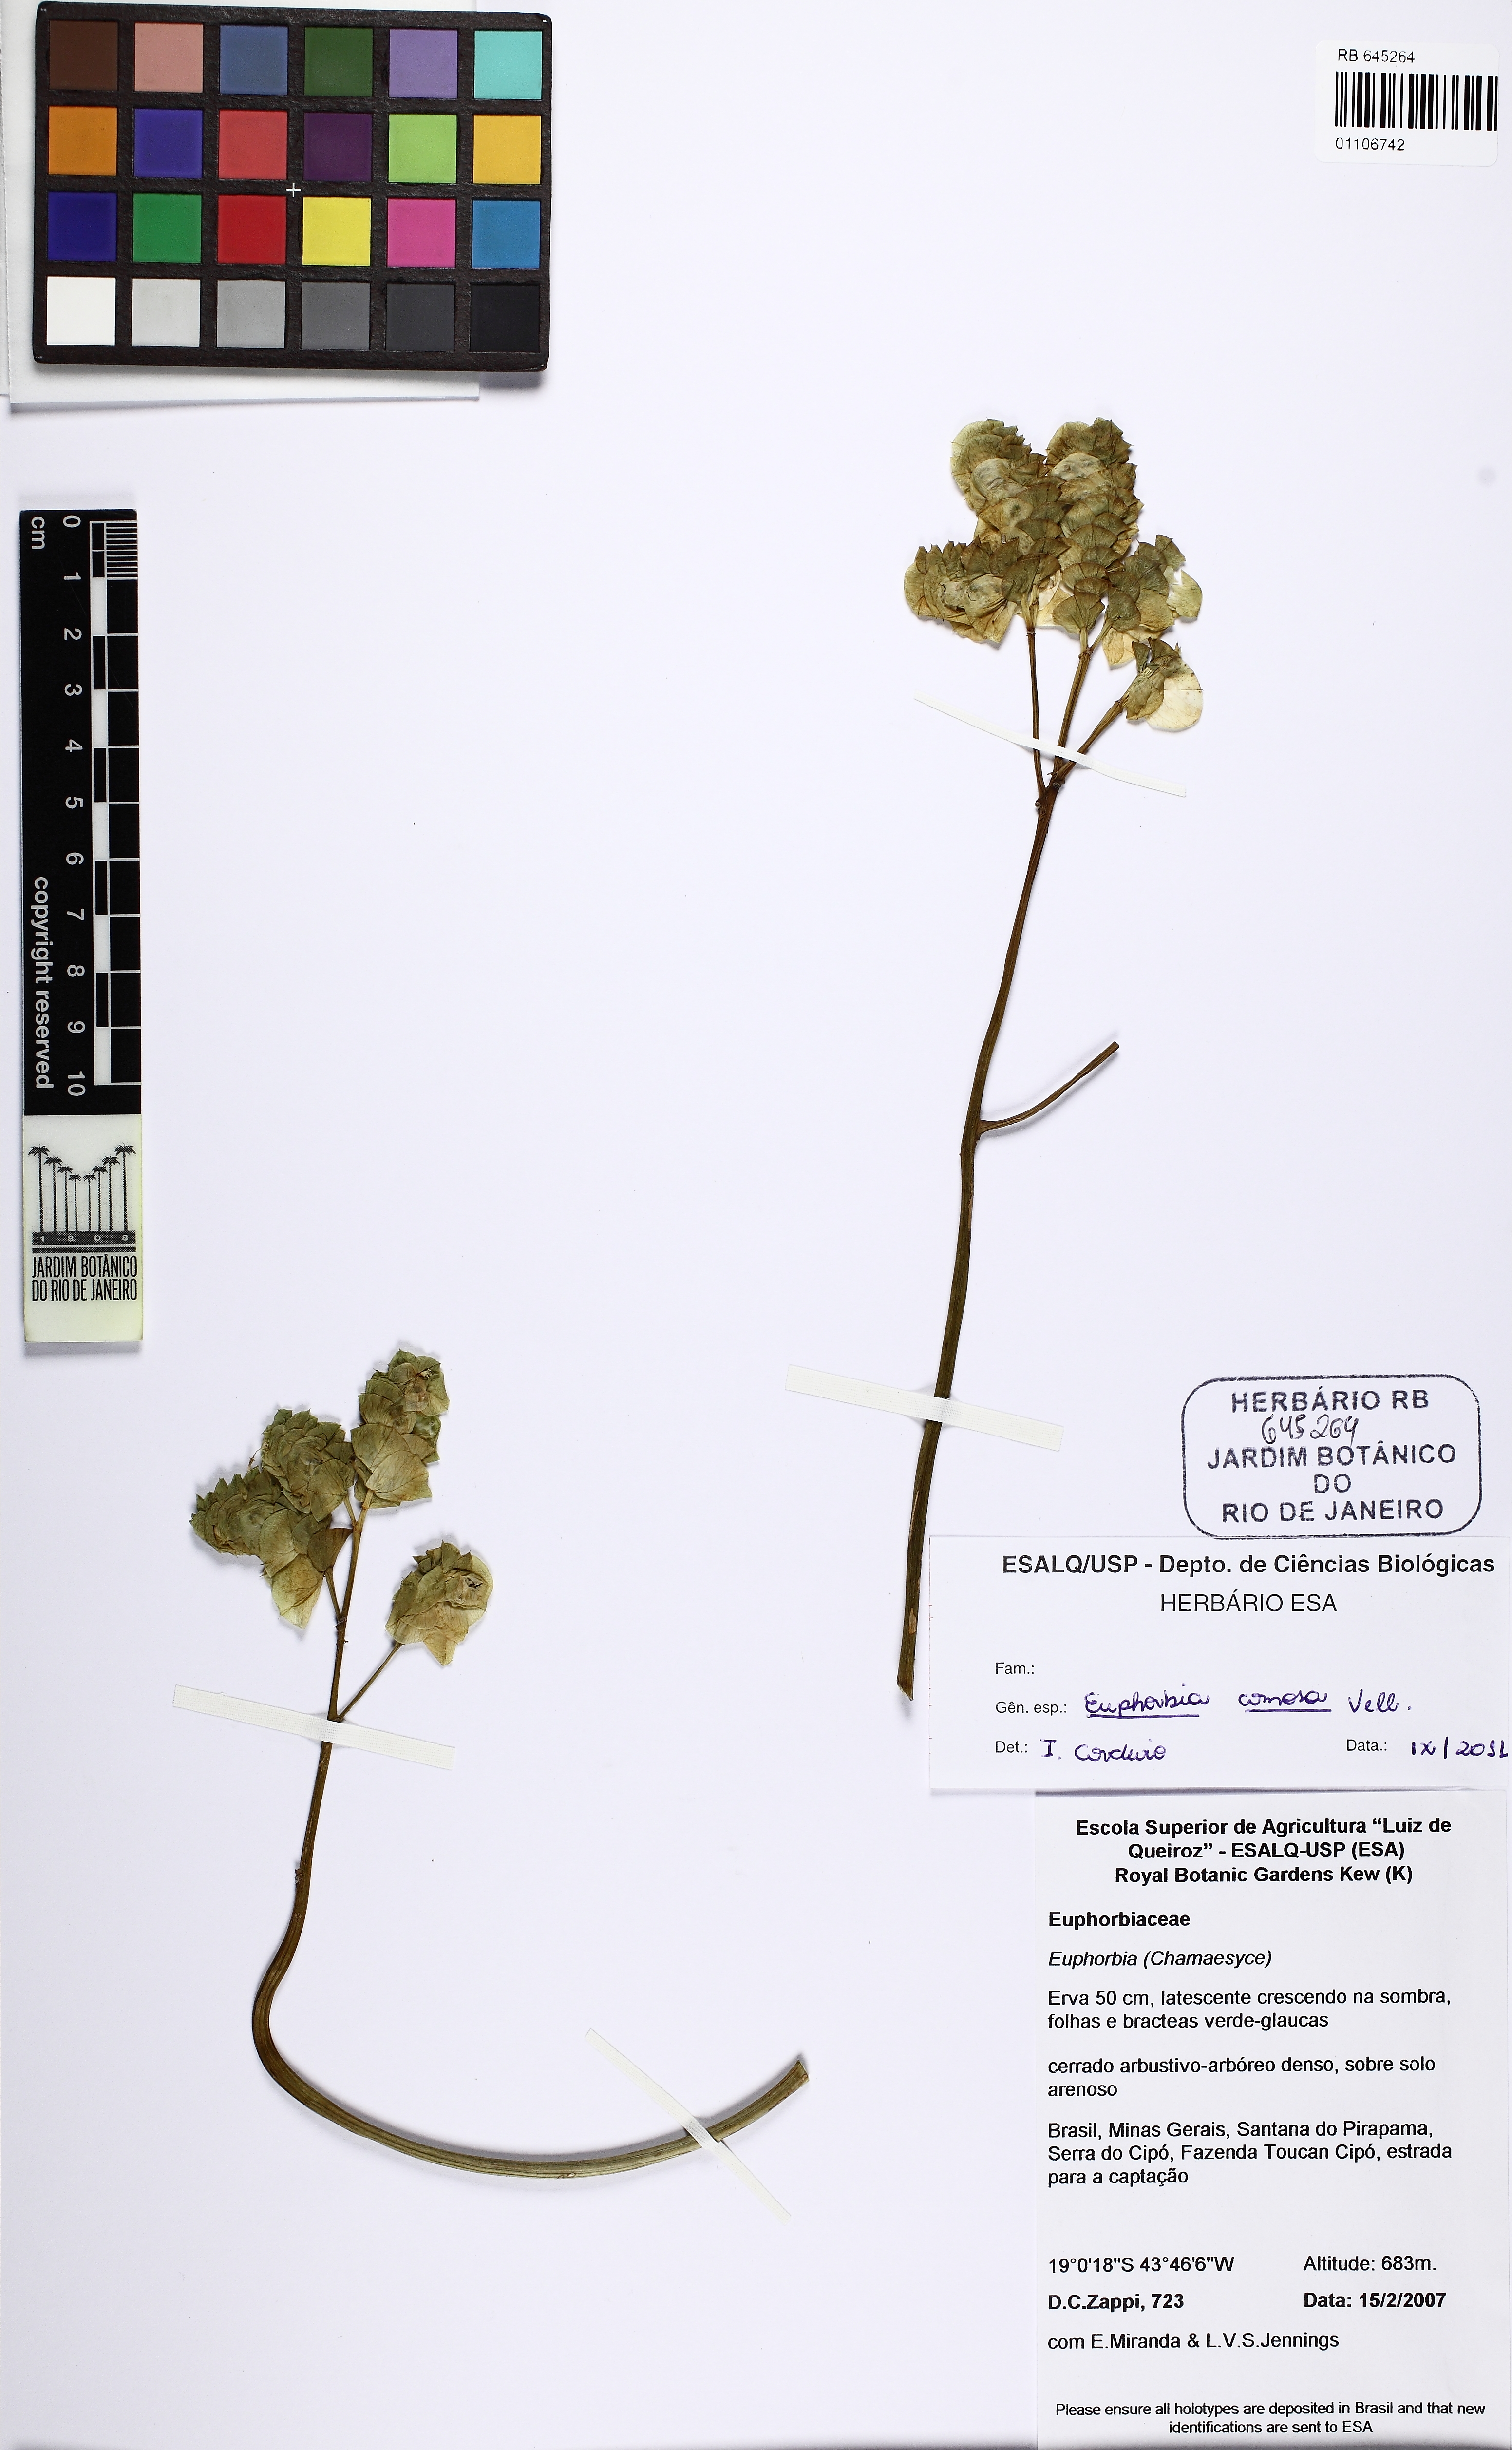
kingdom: Plantae
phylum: Tracheophyta
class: Magnoliopsida
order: Malpighiales
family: Euphorbiaceae
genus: Euphorbia
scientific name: Euphorbia comosa
